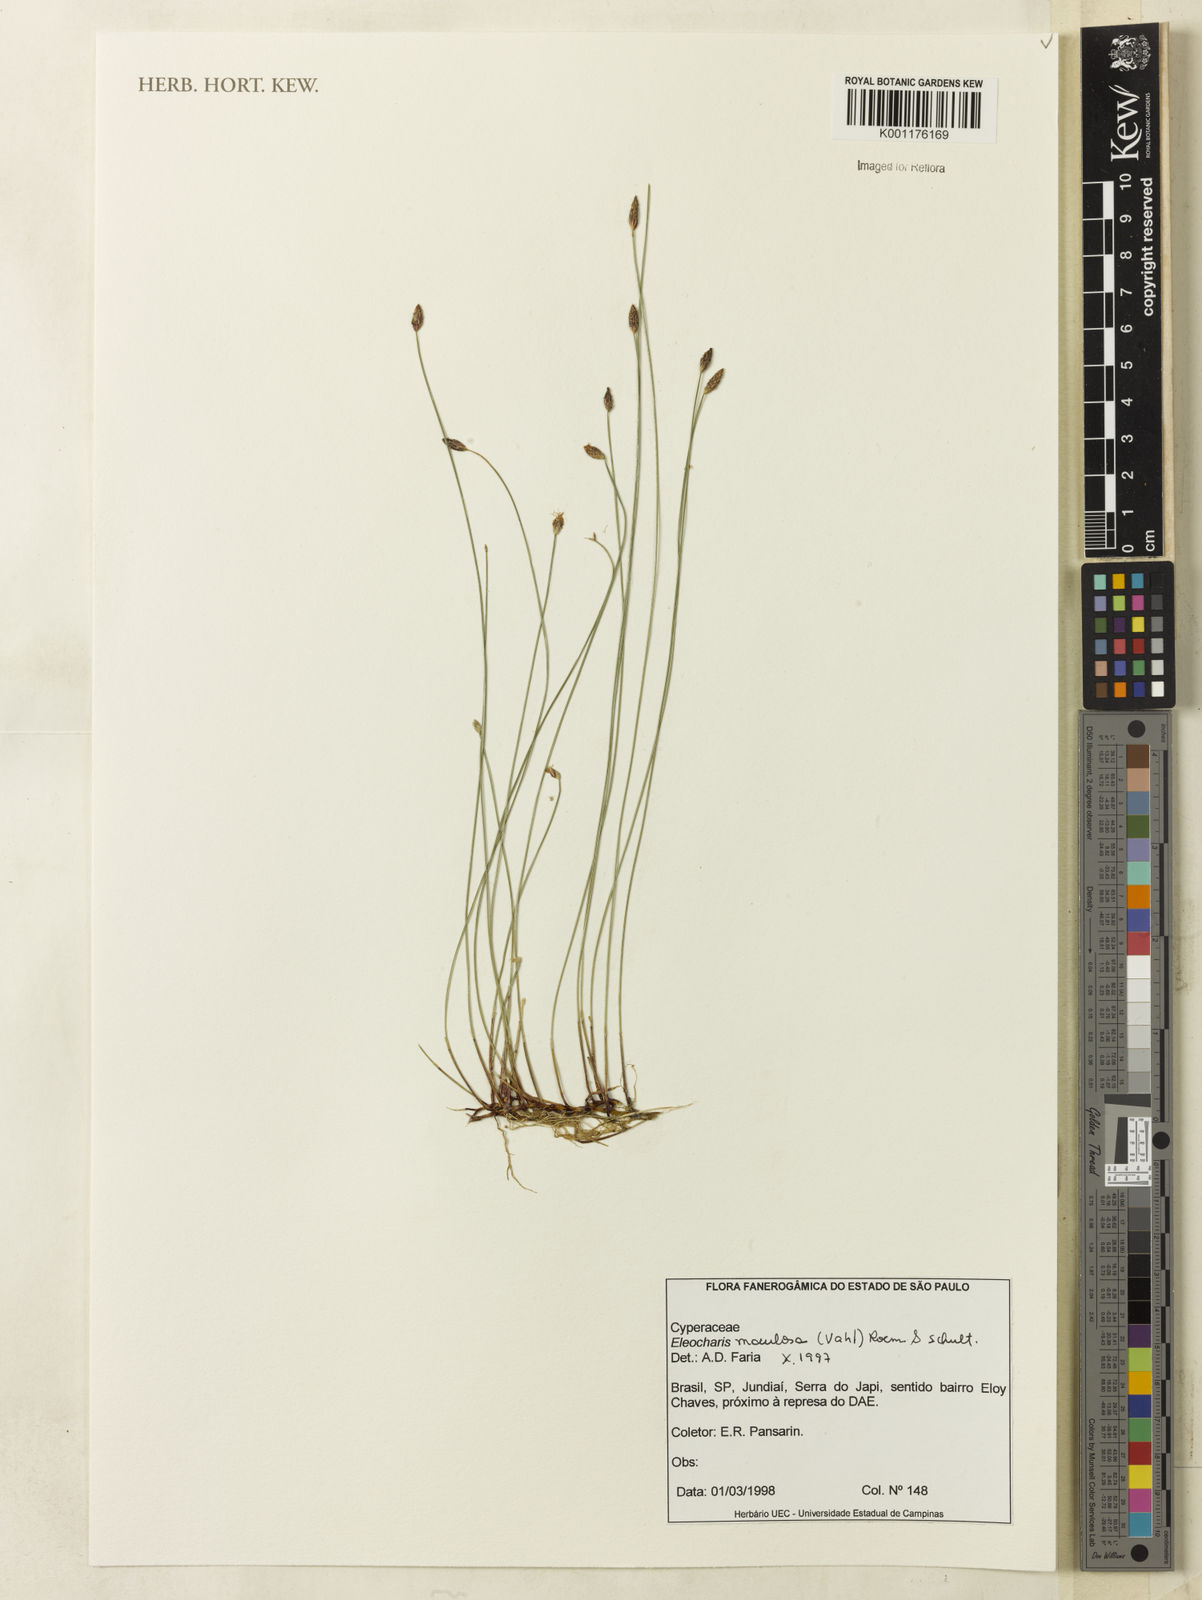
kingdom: Plantae
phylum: Tracheophyta
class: Liliopsida
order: Poales
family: Cyperaceae
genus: Eleocharis
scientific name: Eleocharis maculosa
